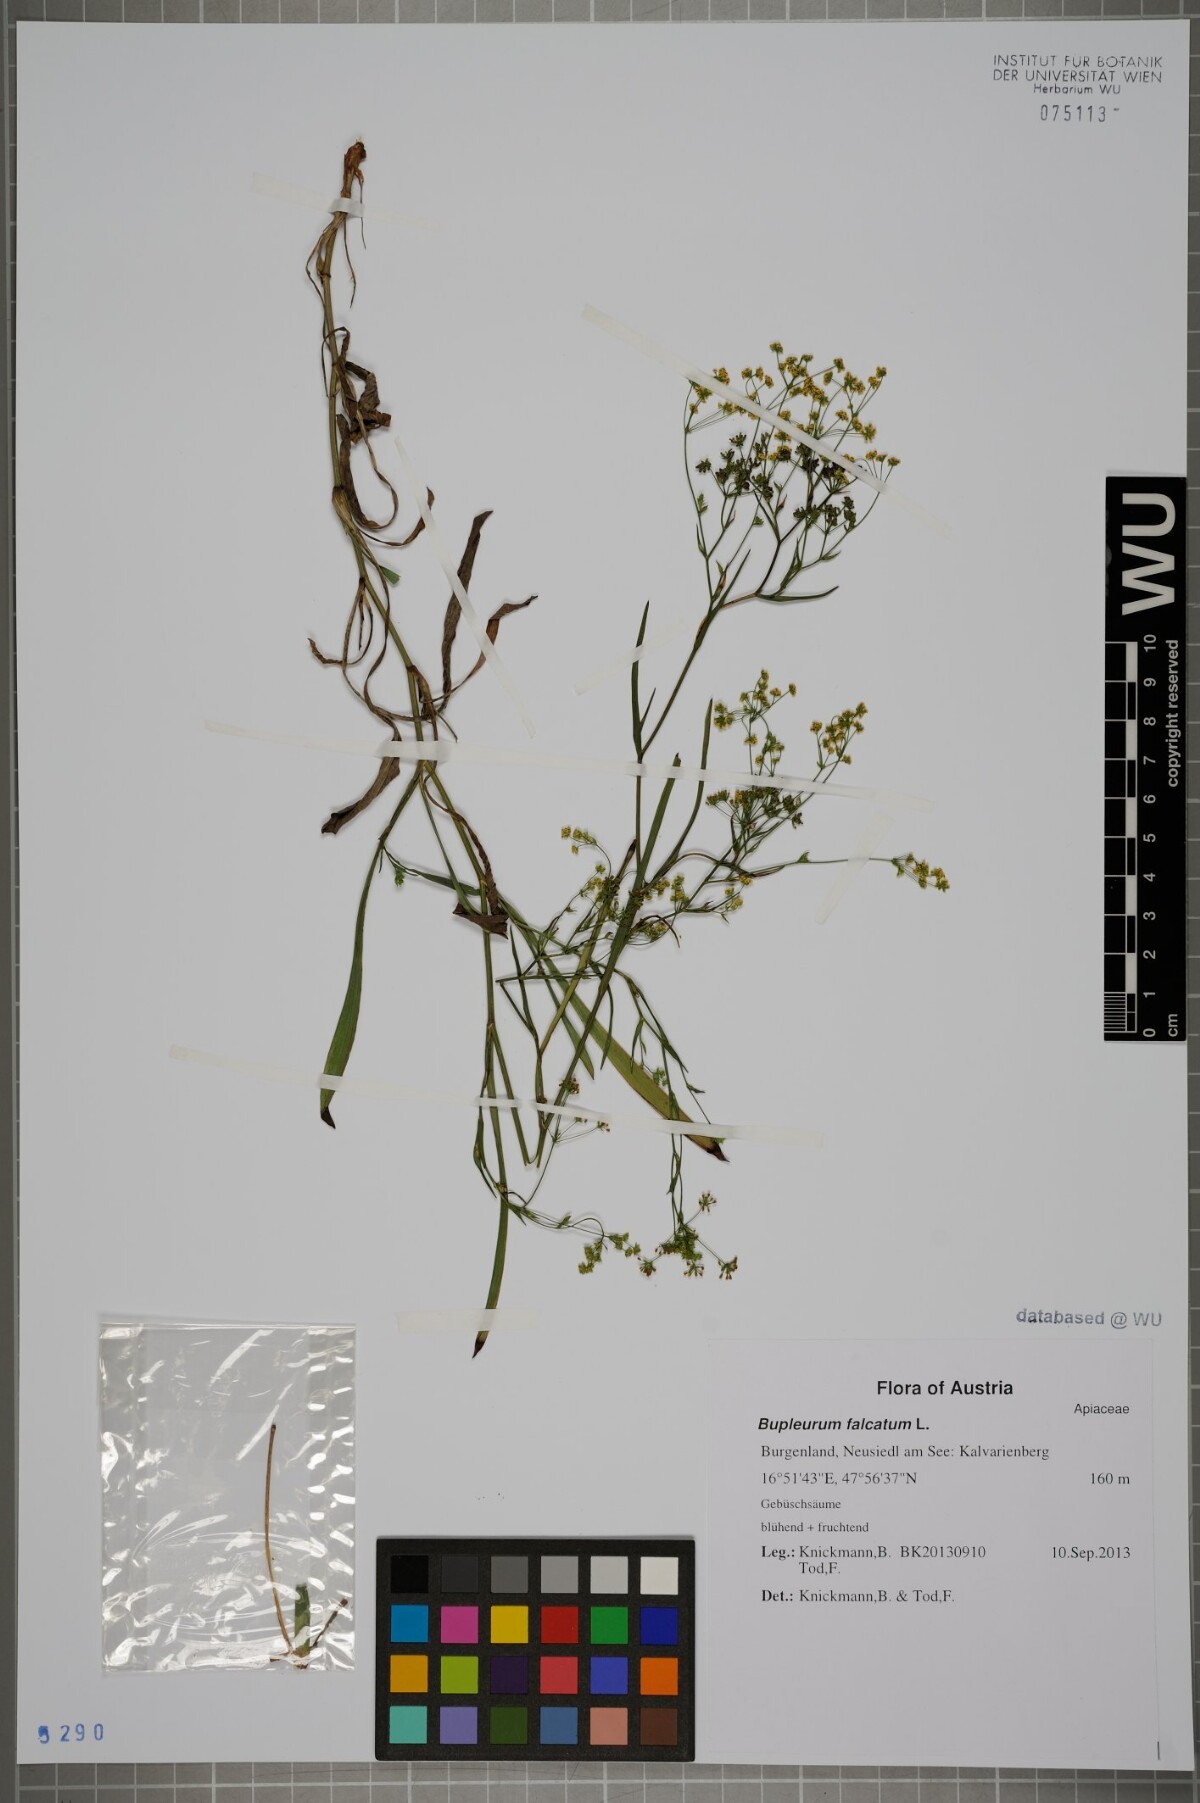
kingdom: Plantae
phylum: Tracheophyta
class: Magnoliopsida
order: Apiales
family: Apiaceae
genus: Bupleurum
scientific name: Bupleurum falcatum
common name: Sickle-leaved hare's-ear
